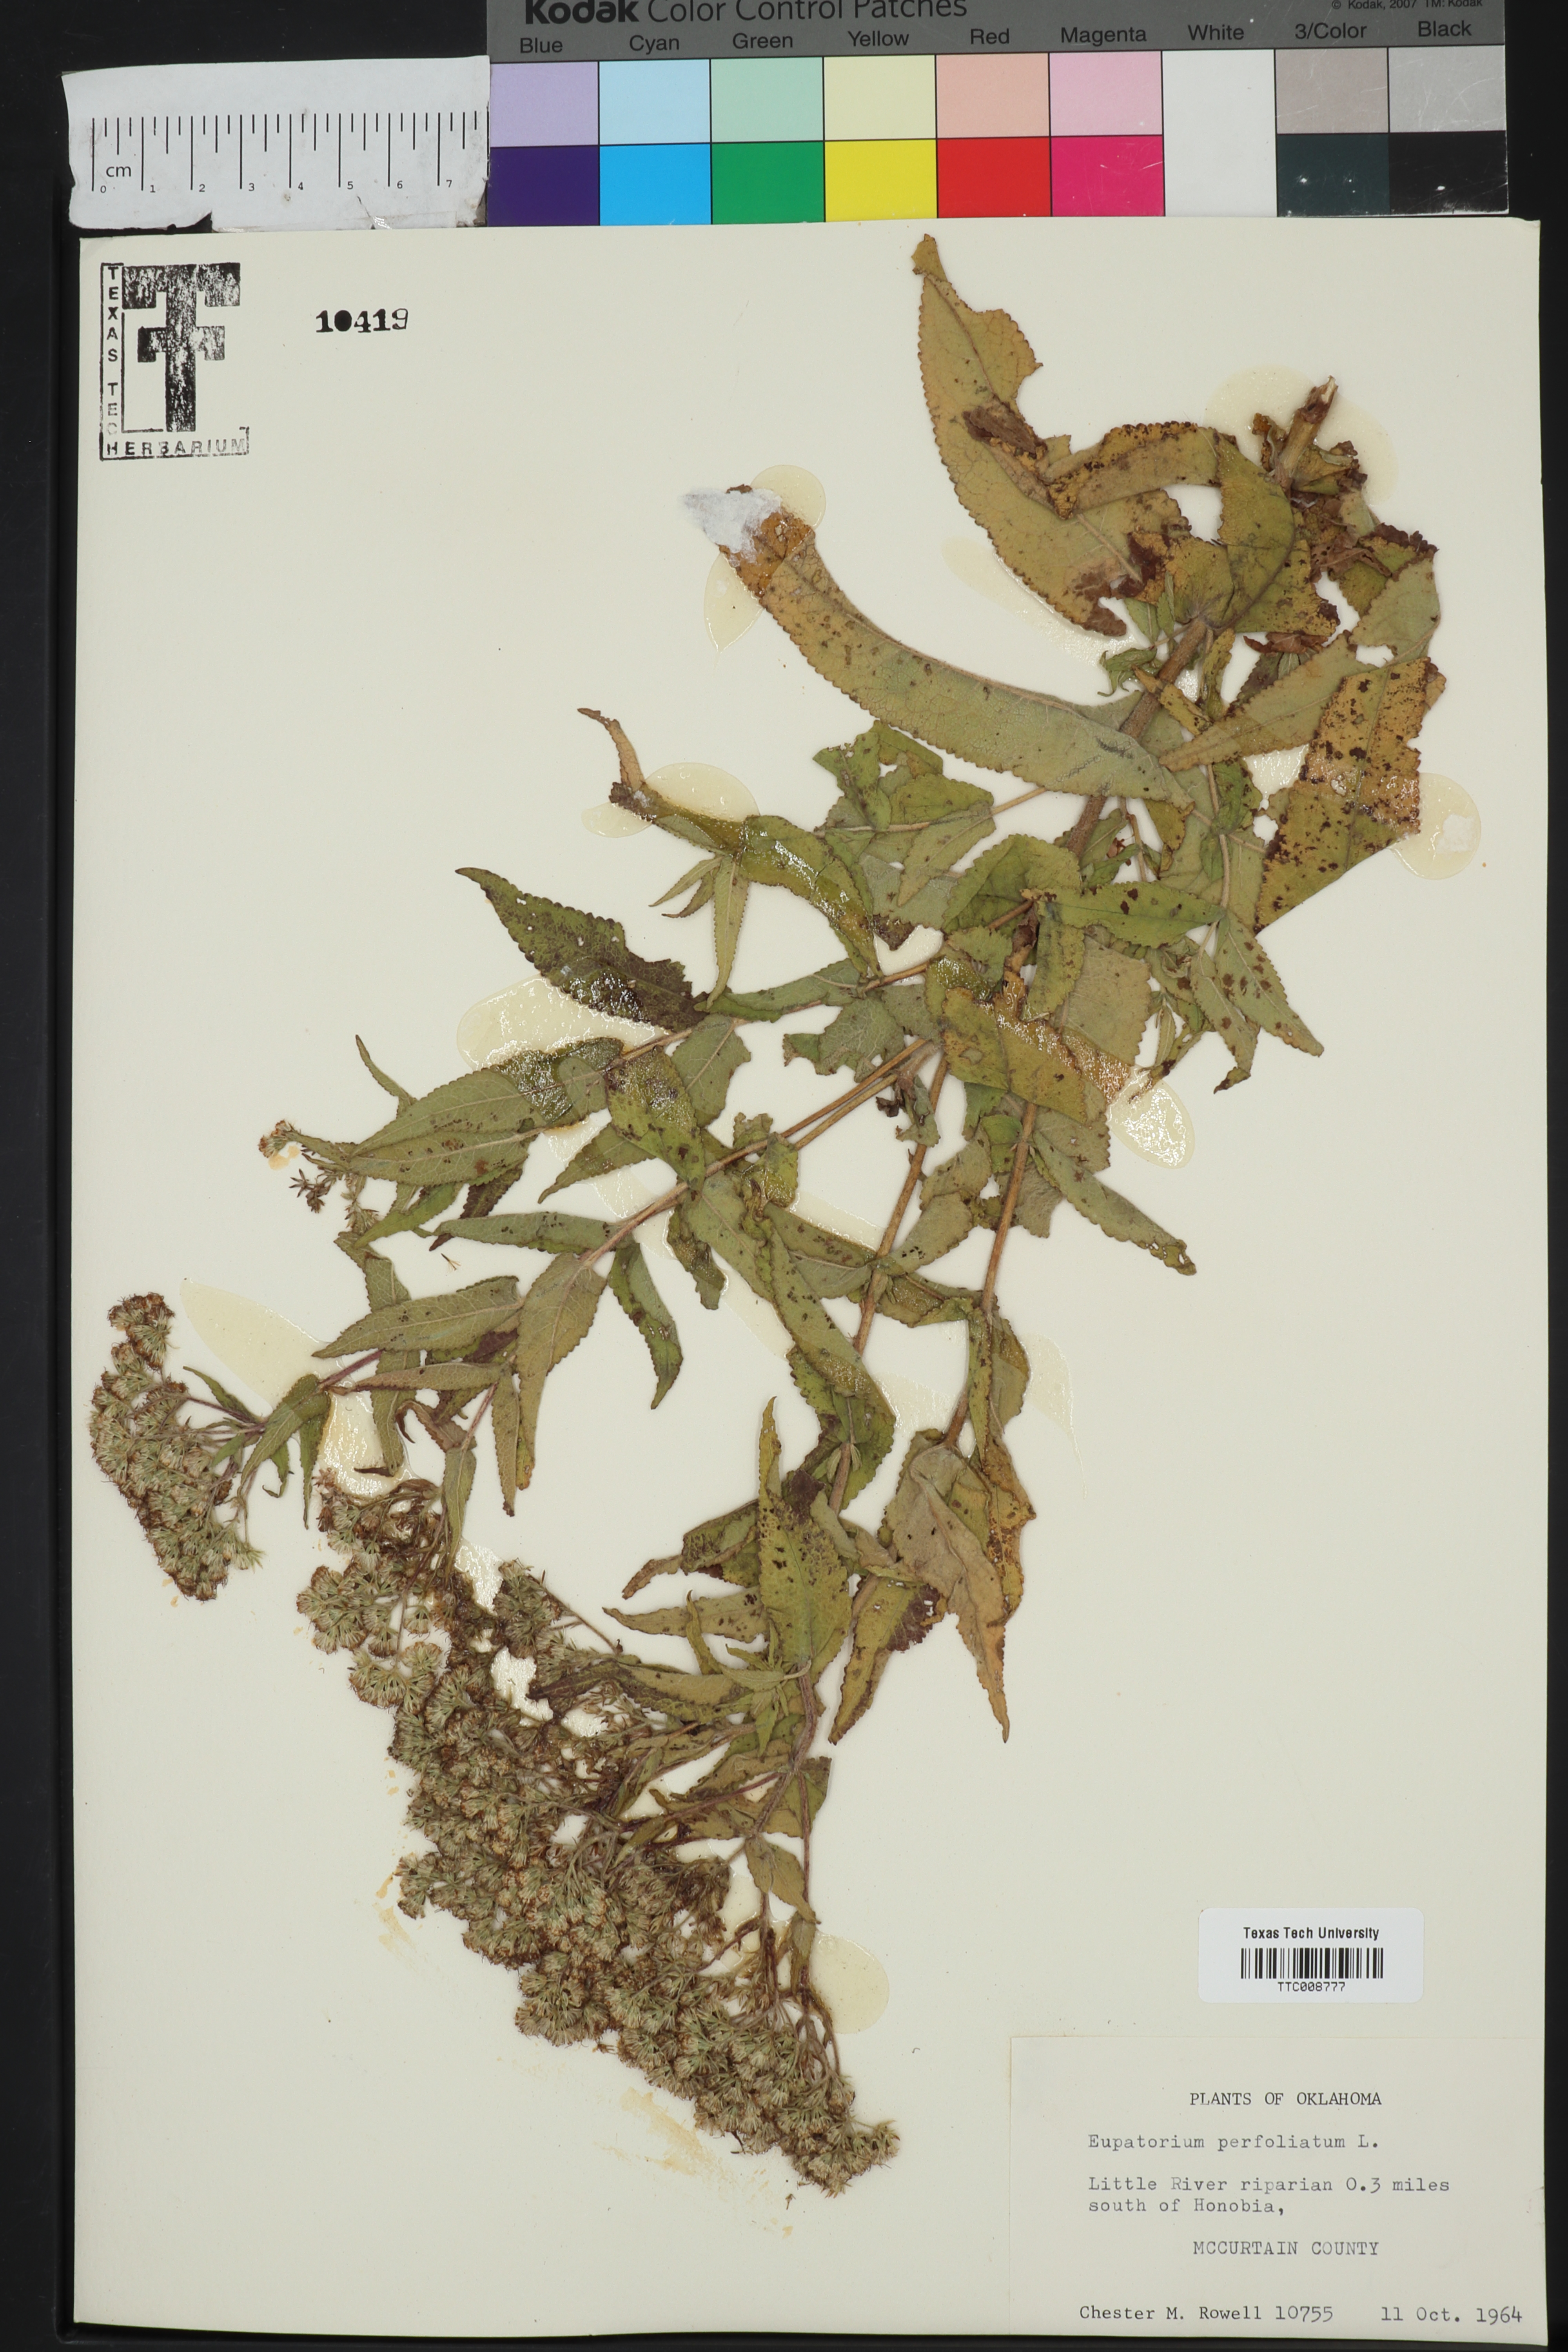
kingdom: Plantae
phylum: Tracheophyta
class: Magnoliopsida
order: Asterales
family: Asteraceae
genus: Eupatorium
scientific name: Eupatorium perfoliatum
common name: Boneset
